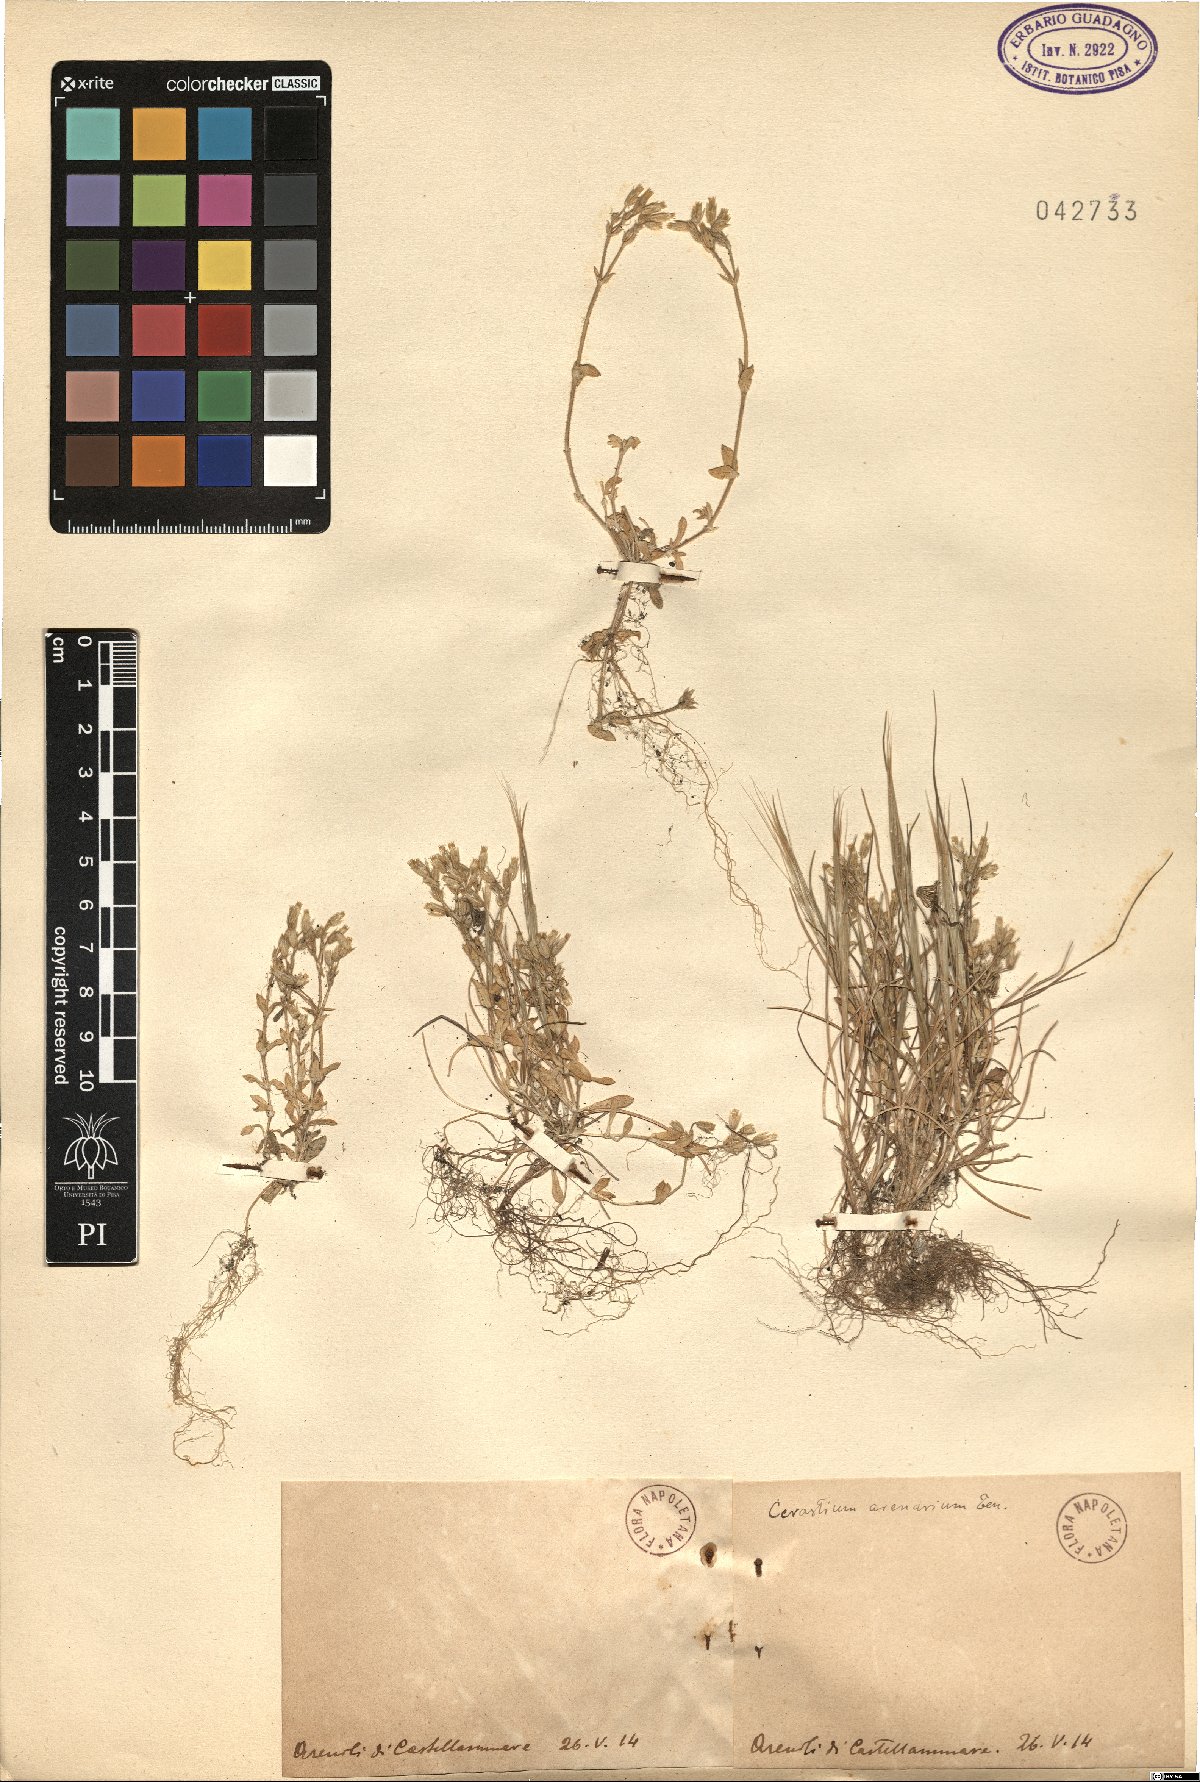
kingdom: Plantae
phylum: Tracheophyta
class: Magnoliopsida
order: Caryophyllales
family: Caryophyllaceae
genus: Cerastium
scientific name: Cerastium semidecandrum
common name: Little mouse-ear
